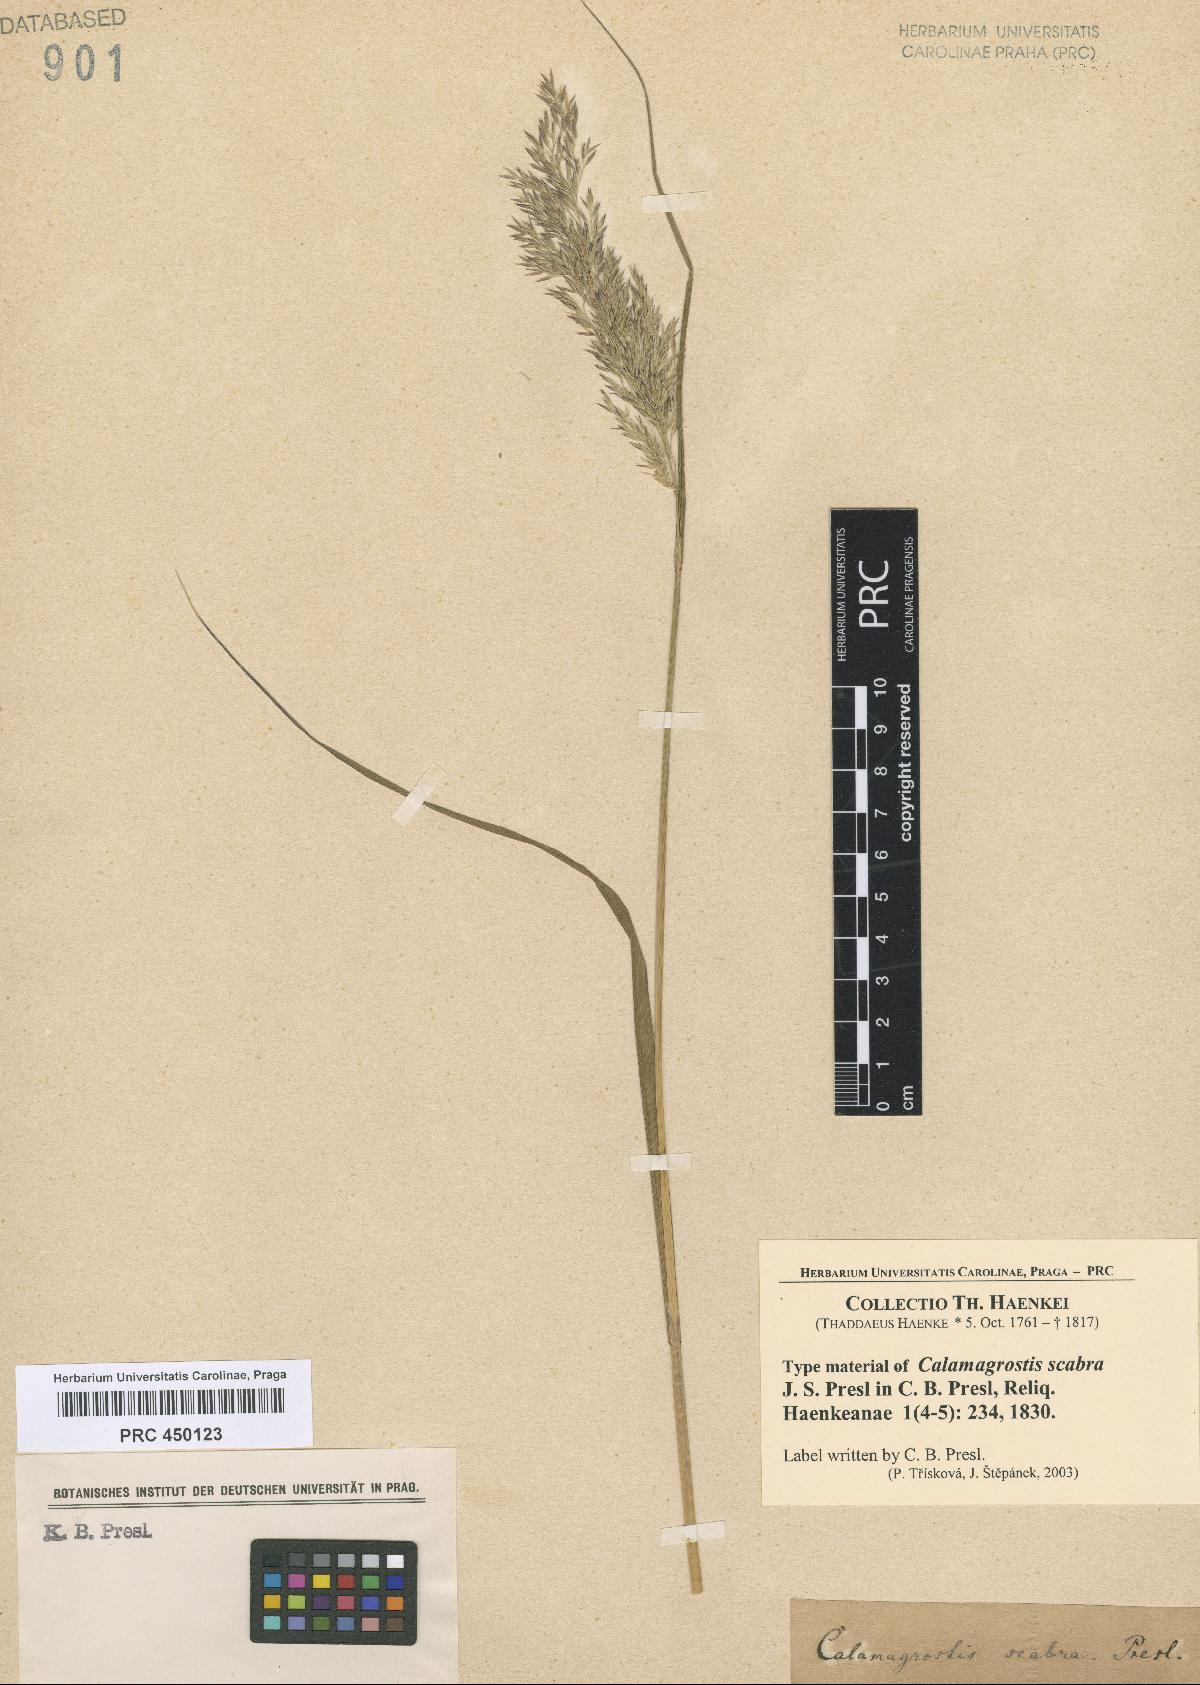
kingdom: Plantae
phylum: Tracheophyta
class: Liliopsida
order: Poales
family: Poaceae
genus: Calamagrostis
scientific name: Calamagrostis canadensis
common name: Canada bluejoint
